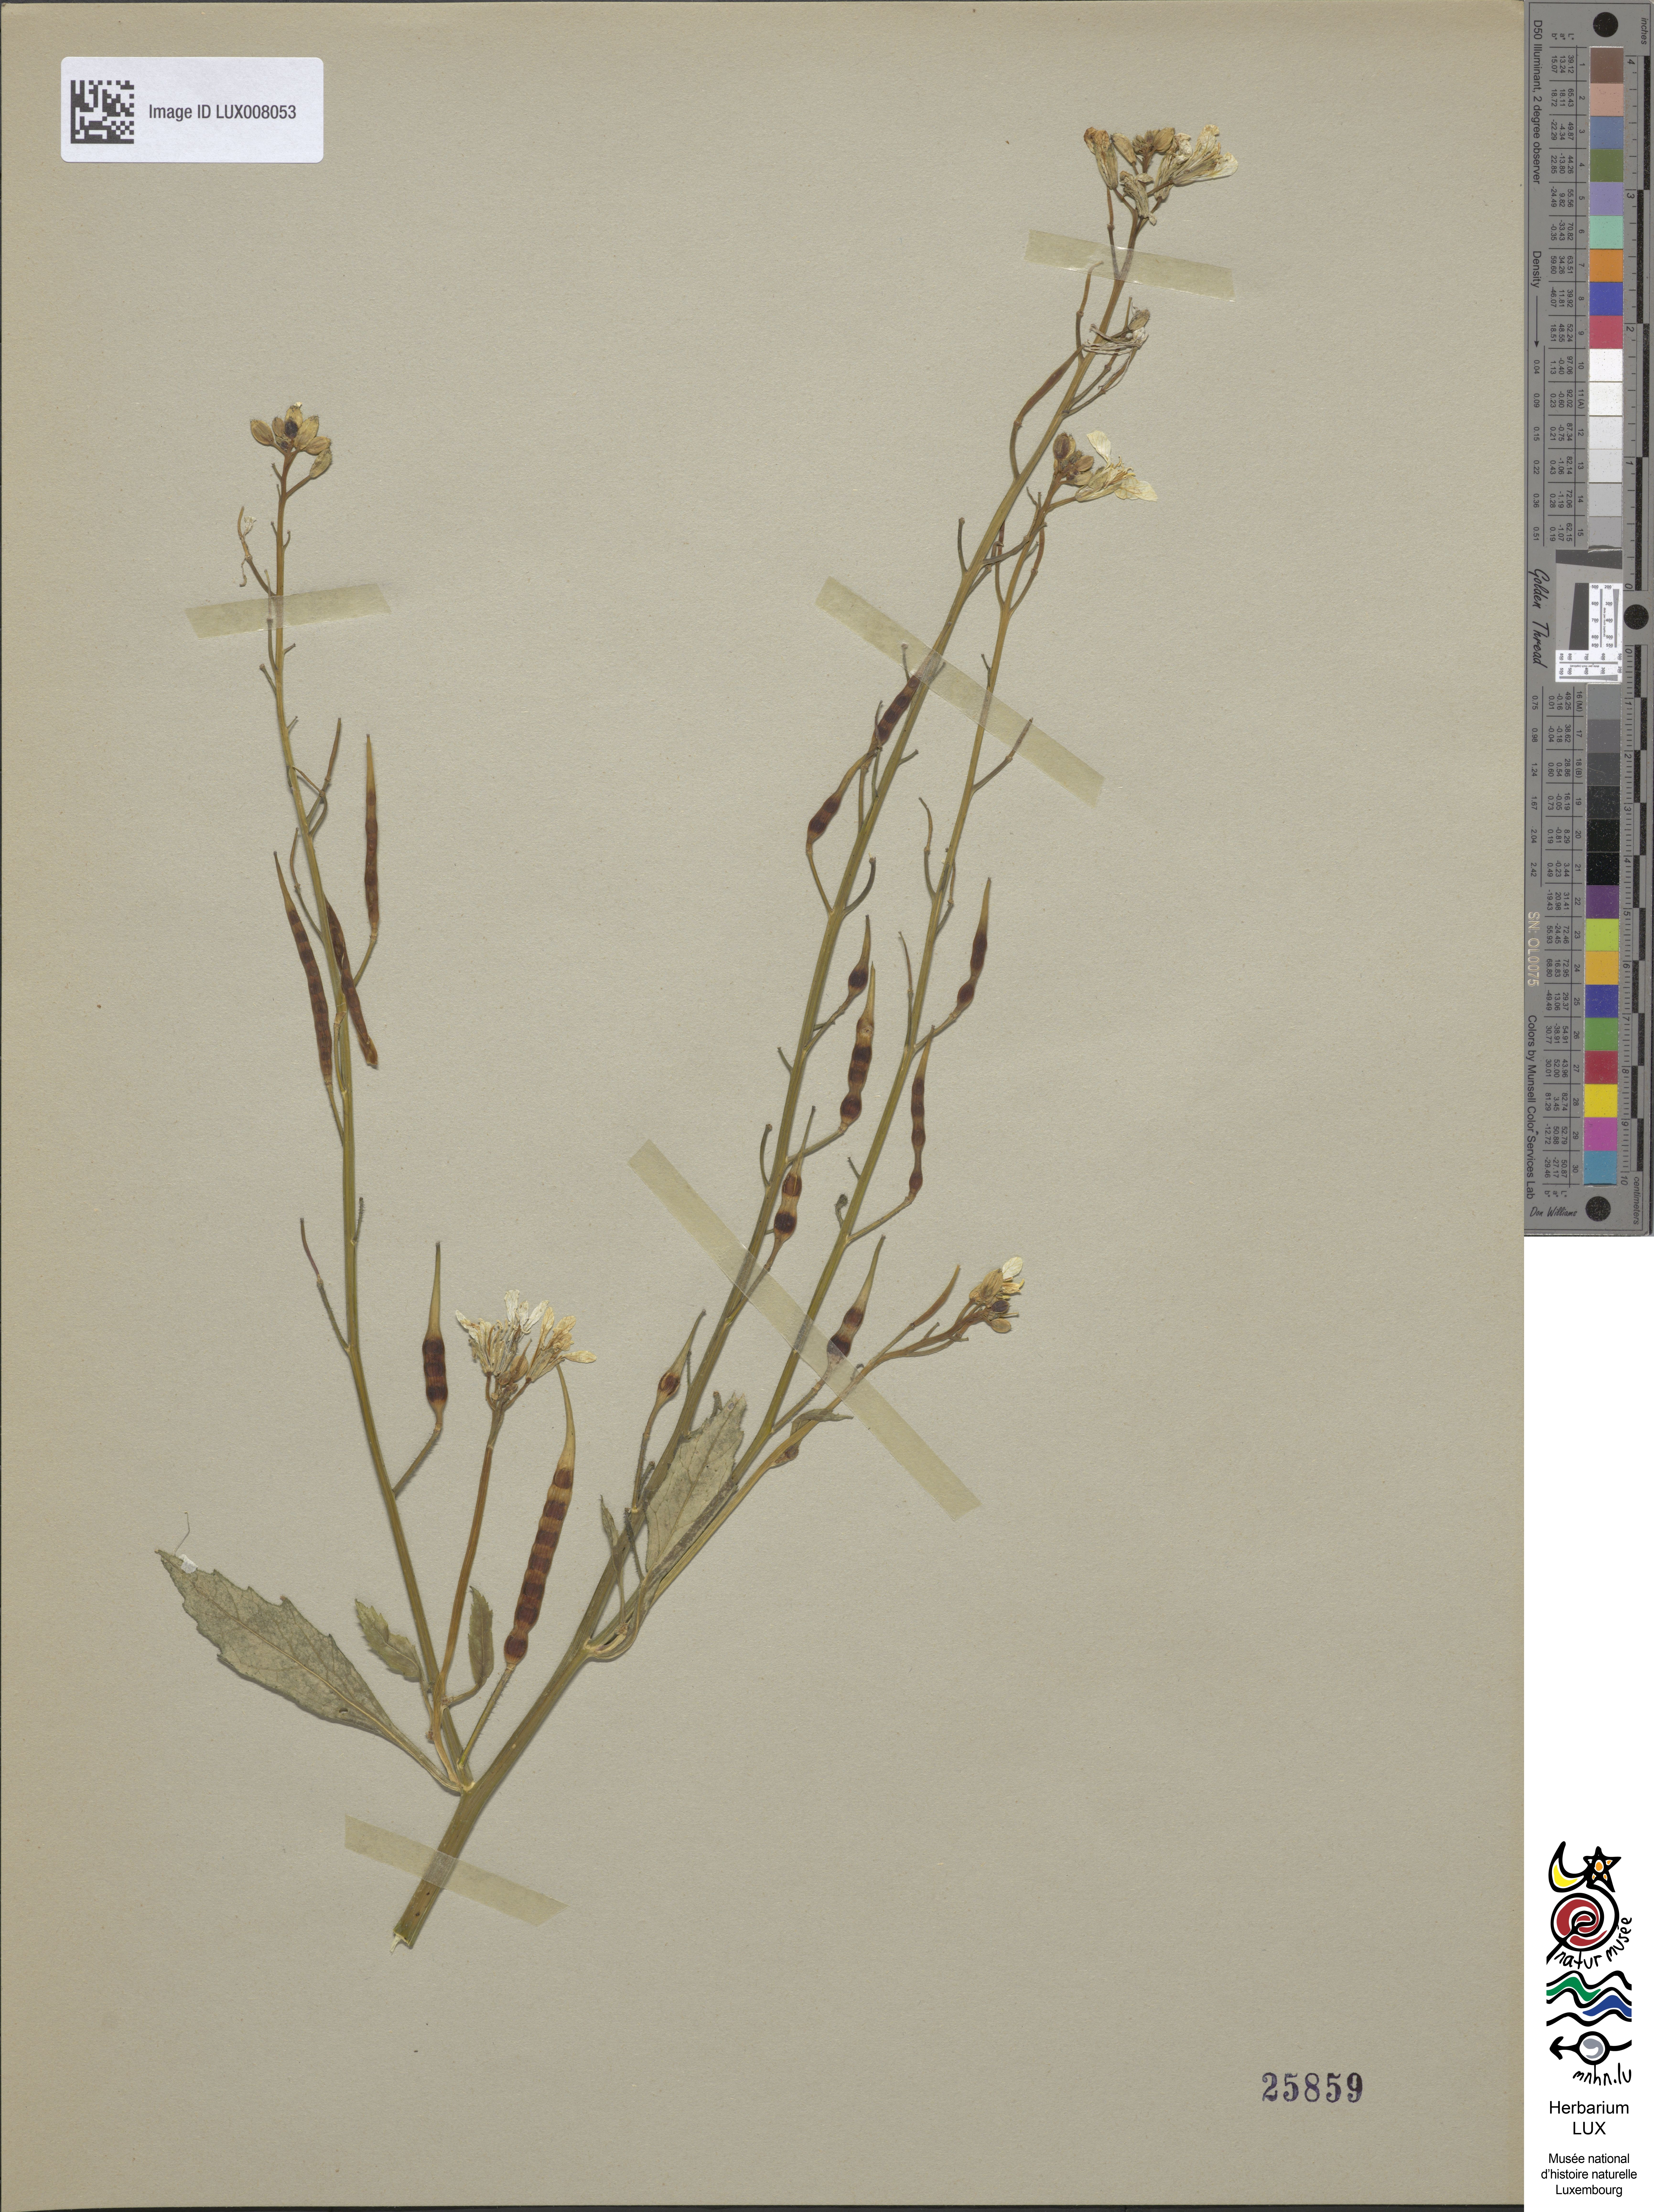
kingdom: Plantae
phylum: Tracheophyta
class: Magnoliopsida
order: Brassicales
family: Brassicaceae
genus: Raphanus
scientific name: Raphanus raphanistrum
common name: Wild radish
